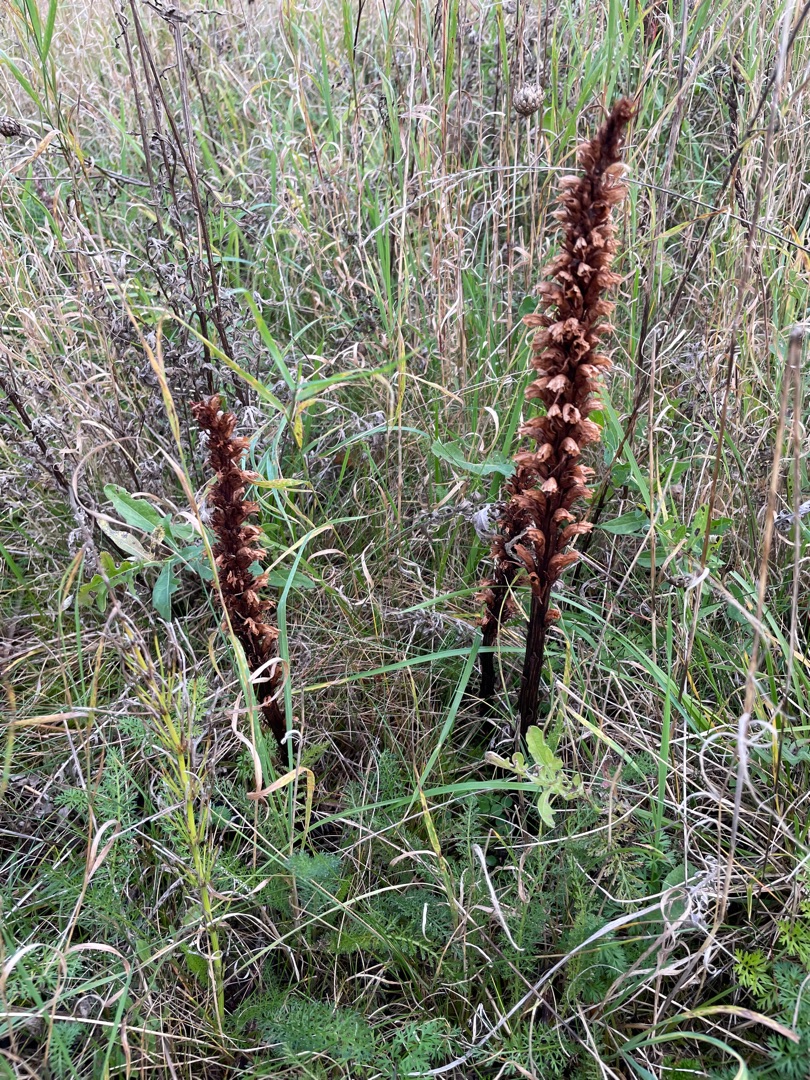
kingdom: Plantae
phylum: Tracheophyta
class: Magnoliopsida
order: Lamiales
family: Orobanchaceae
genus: Orobanche
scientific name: Orobanche elatior
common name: Stor gyvelkvæler
